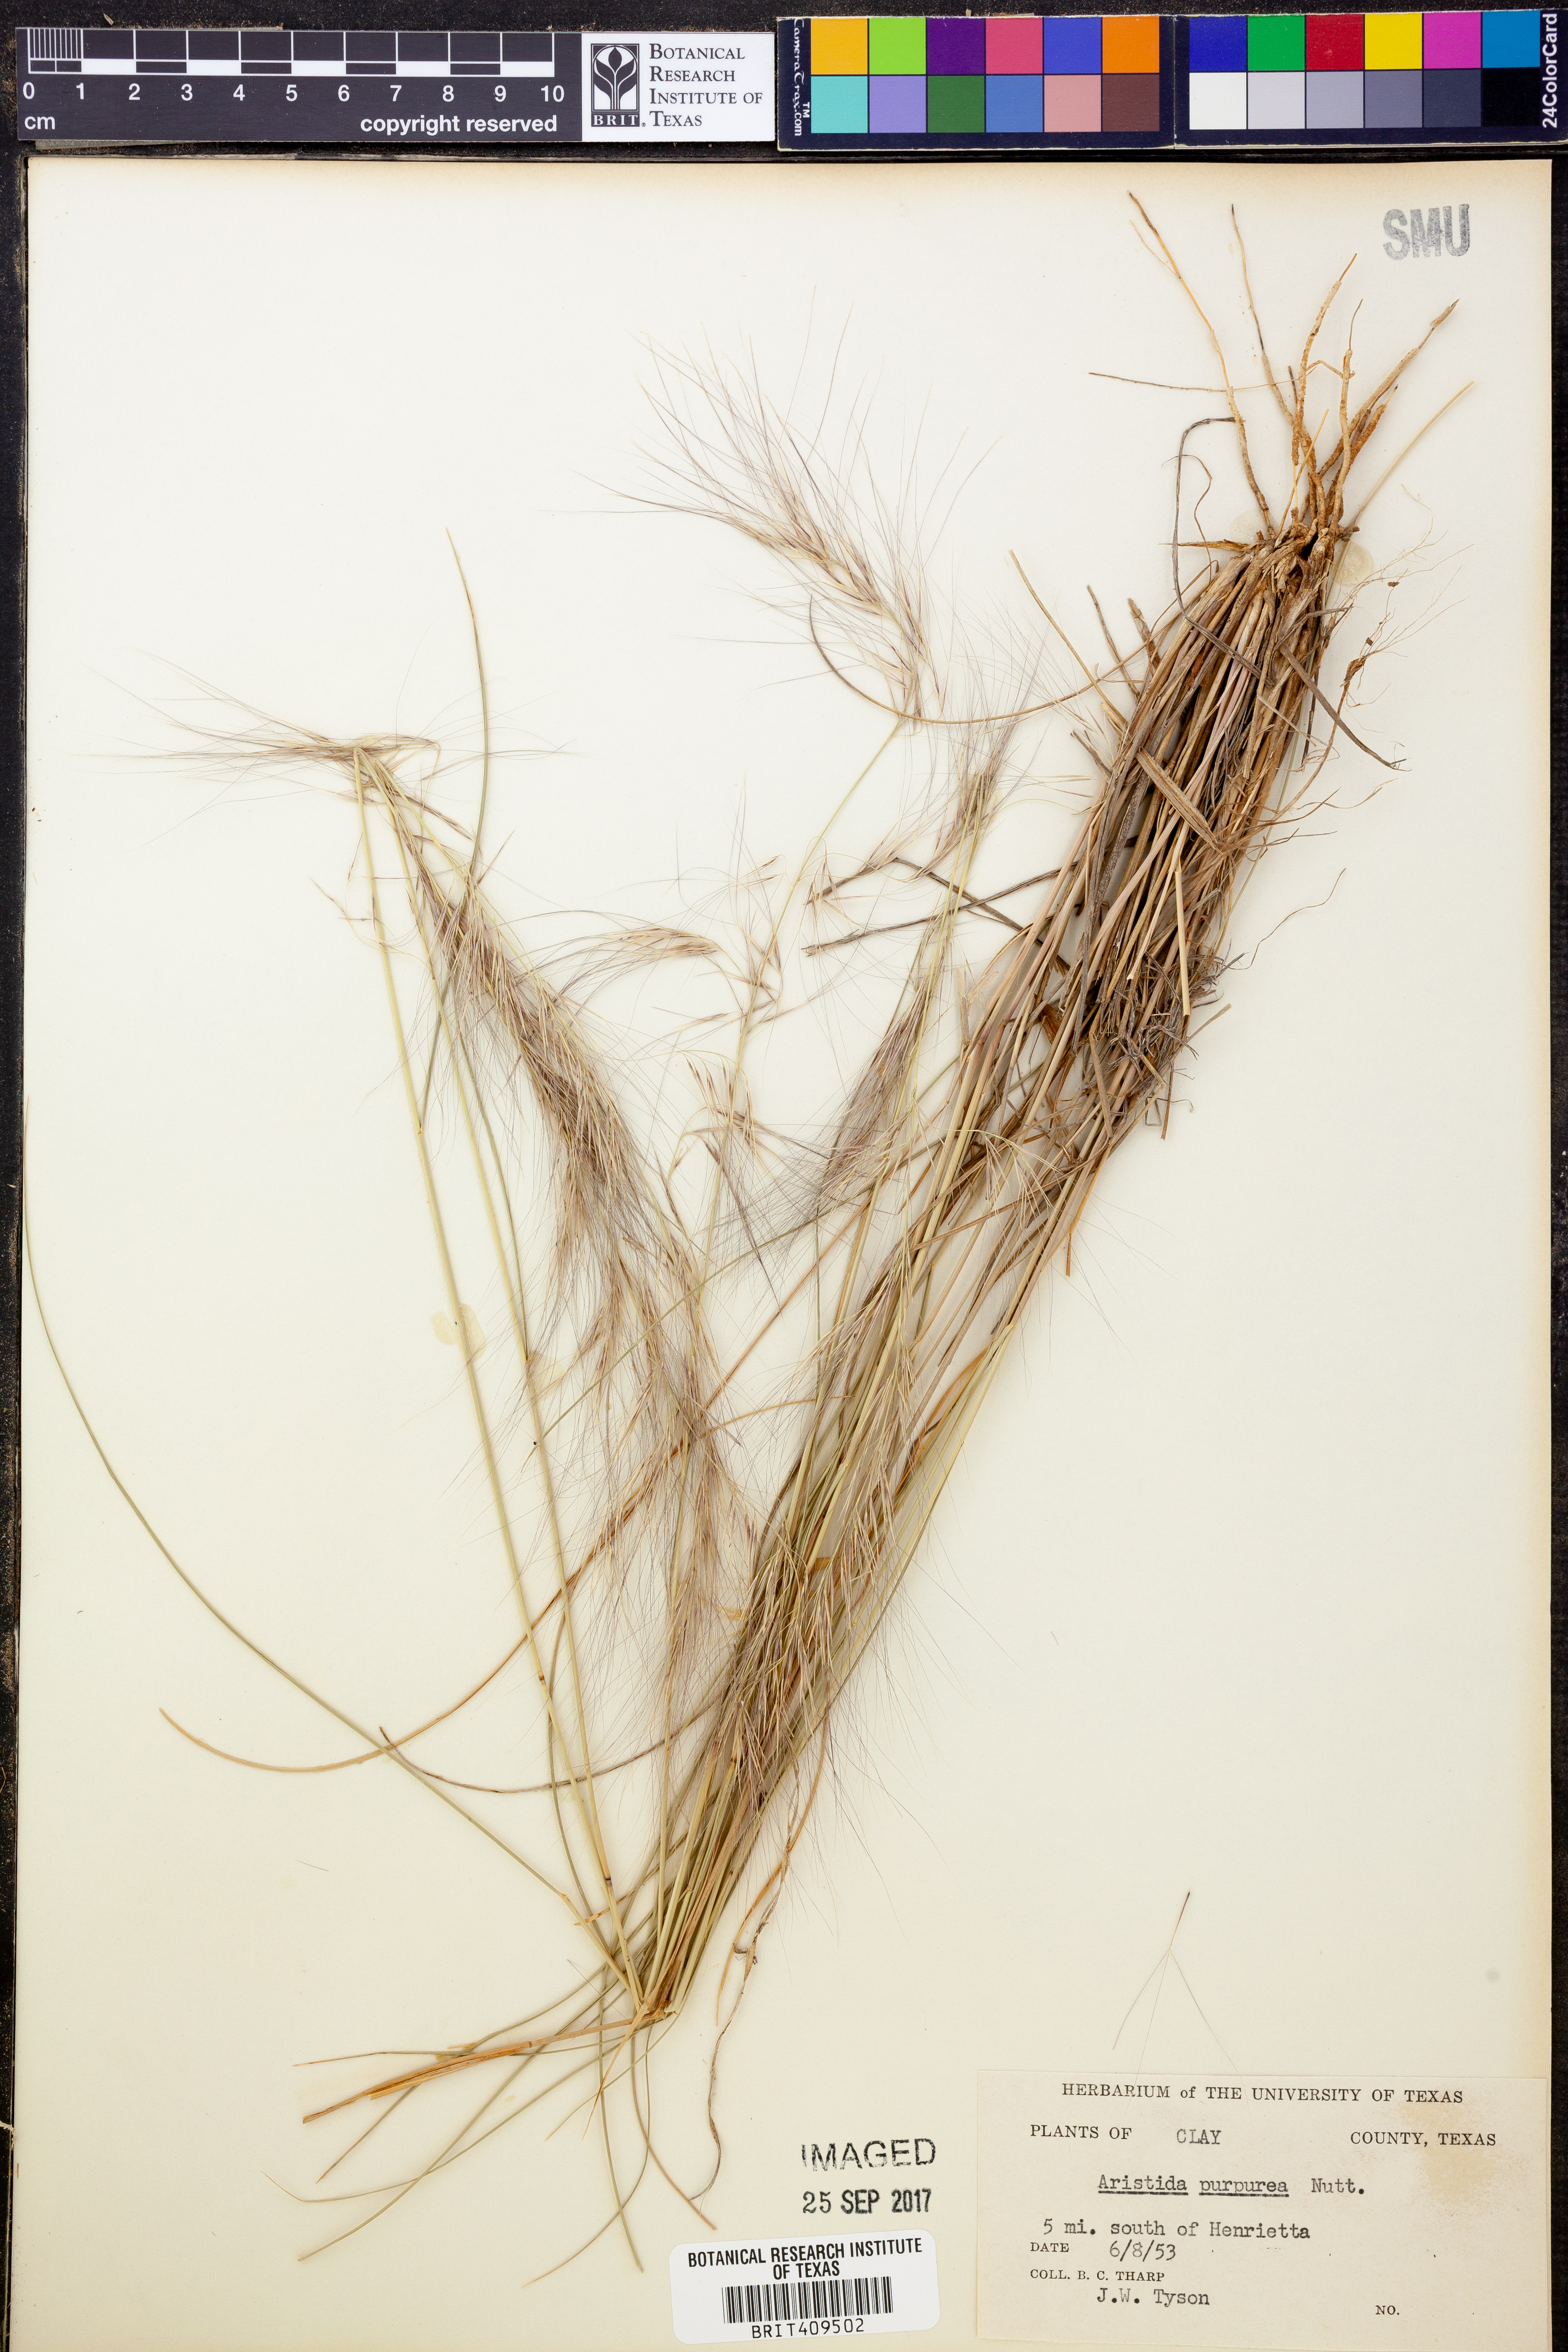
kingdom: Plantae
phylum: Tracheophyta
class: Liliopsida
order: Poales
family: Poaceae
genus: Aristida
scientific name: Aristida purpurea
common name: Purple threeawn
